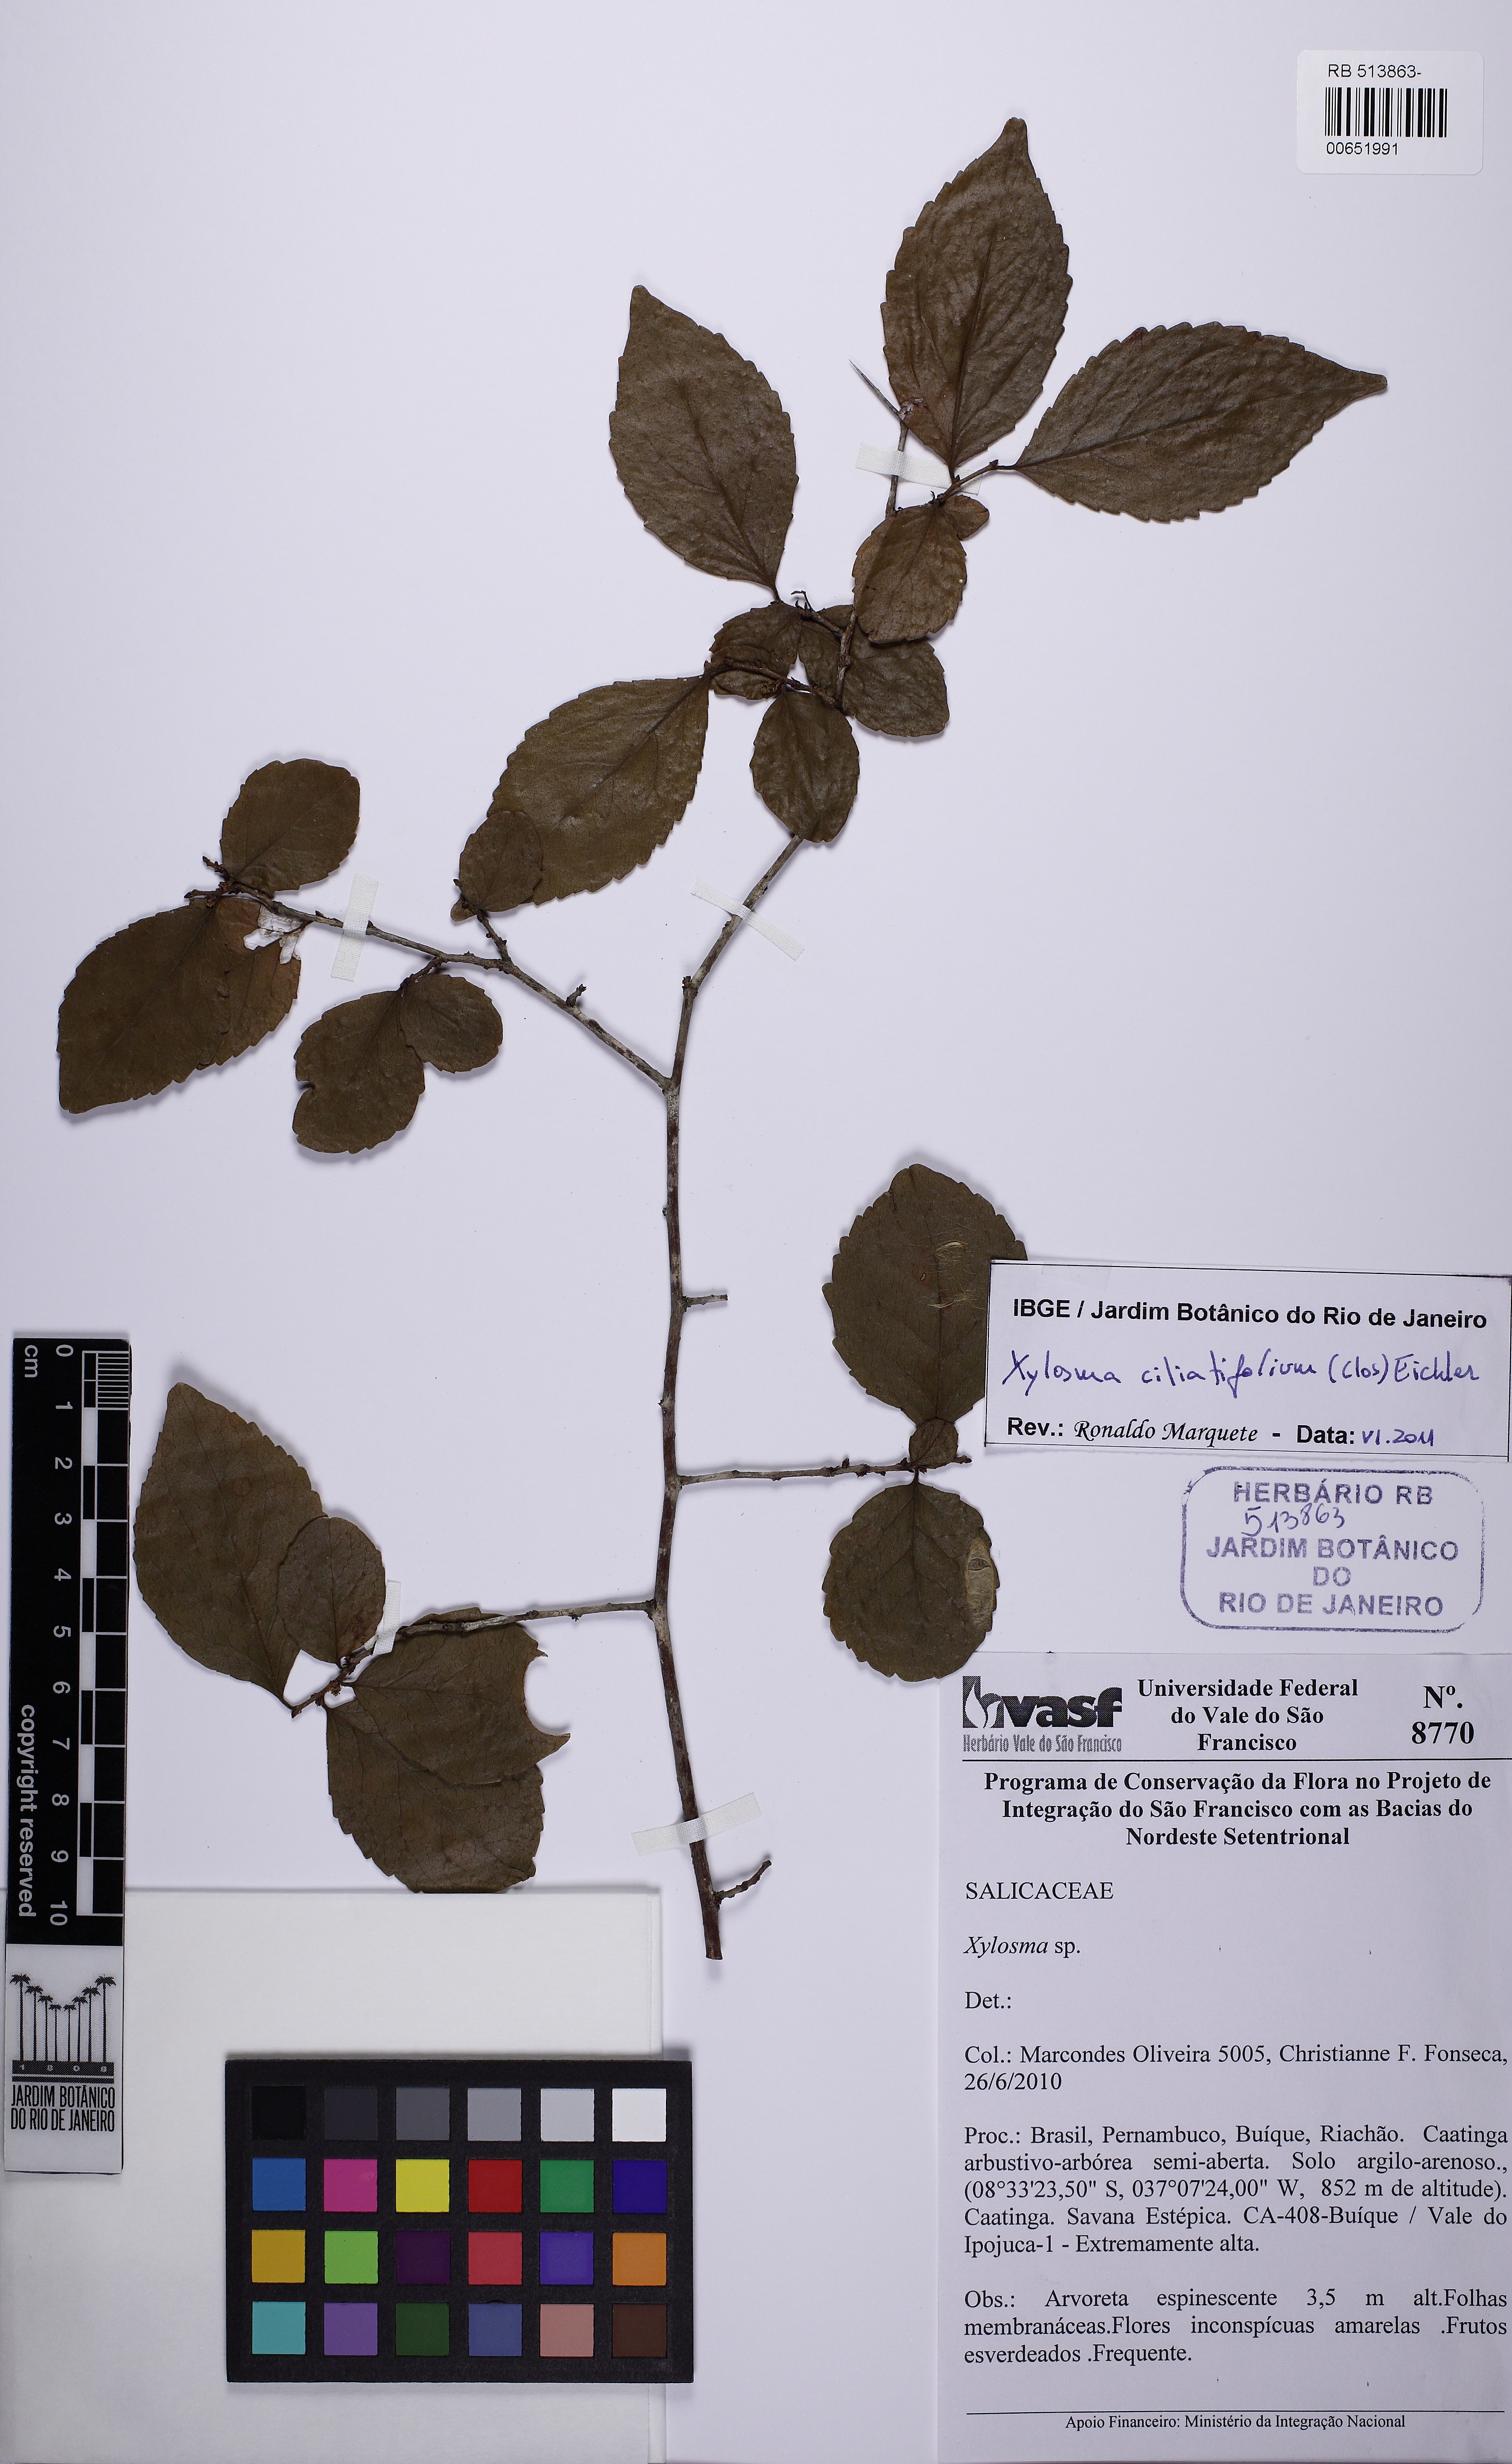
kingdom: Plantae
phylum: Tracheophyta
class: Magnoliopsida
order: Malpighiales
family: Salicaceae
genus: Xylosma
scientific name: Xylosma ciliatifolia
